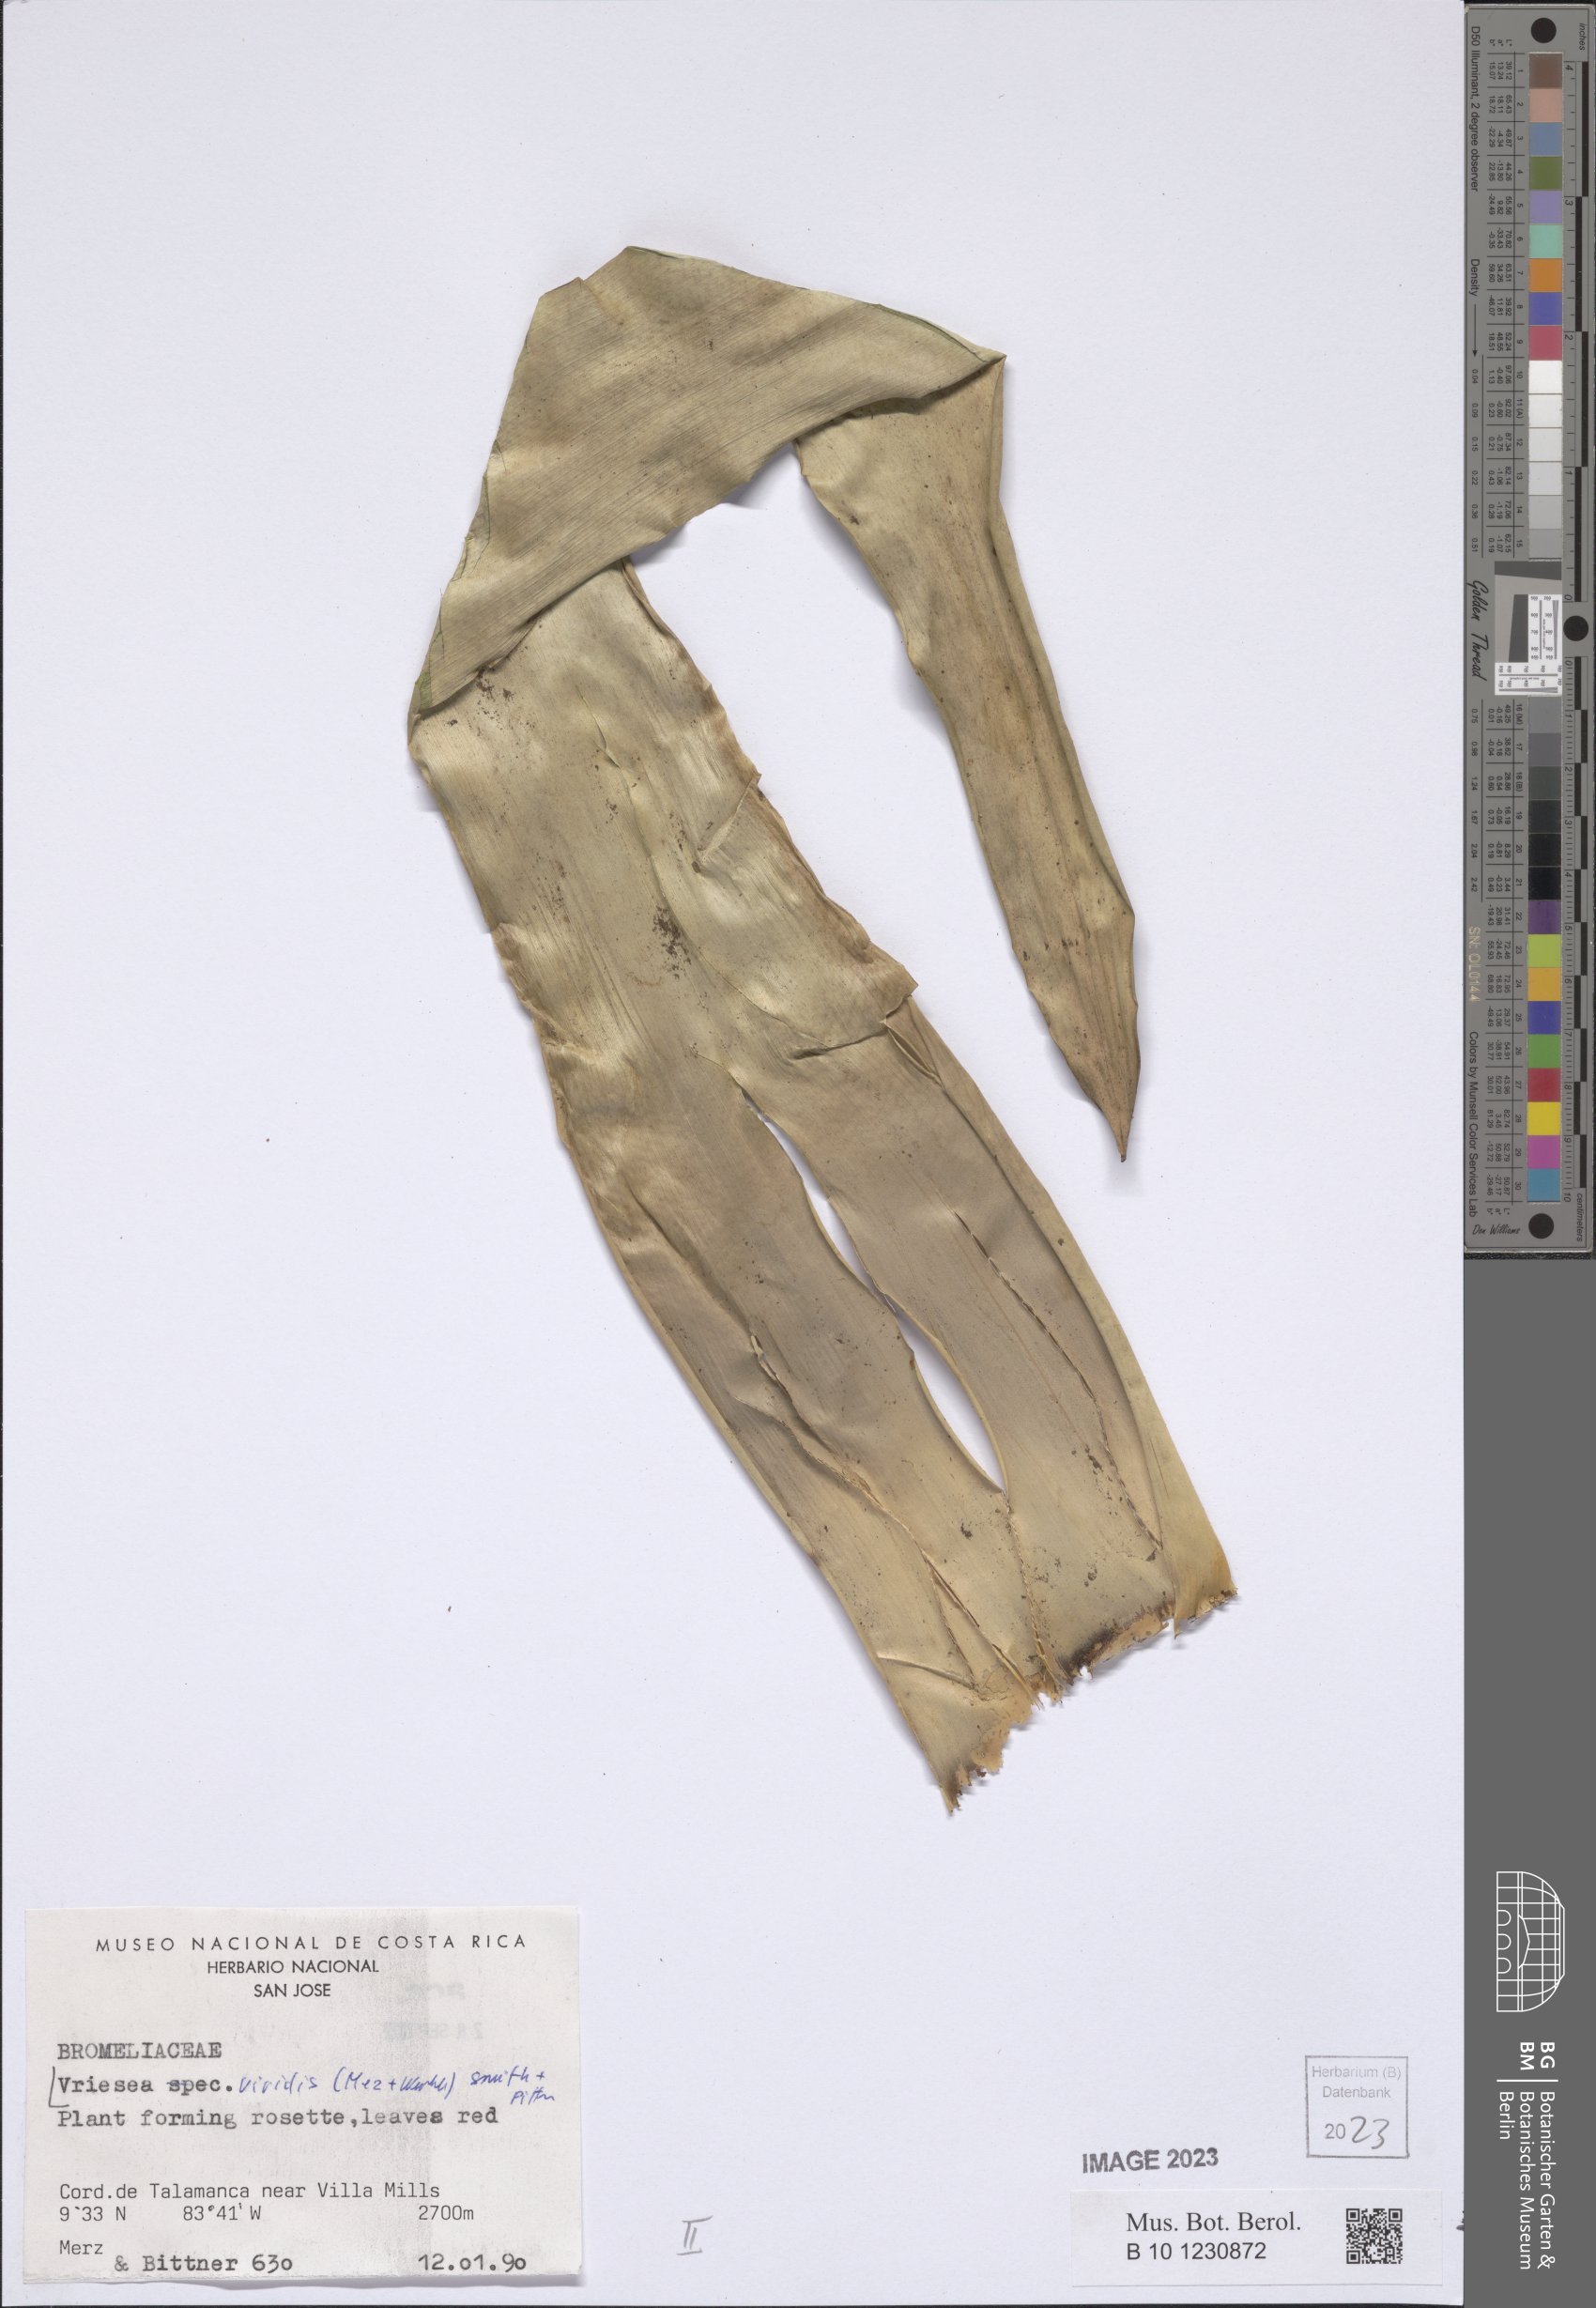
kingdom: Plantae
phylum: Tracheophyta
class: Liliopsida
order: Poales
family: Bromeliaceae
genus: Werauhia
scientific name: Werauhia viridis
